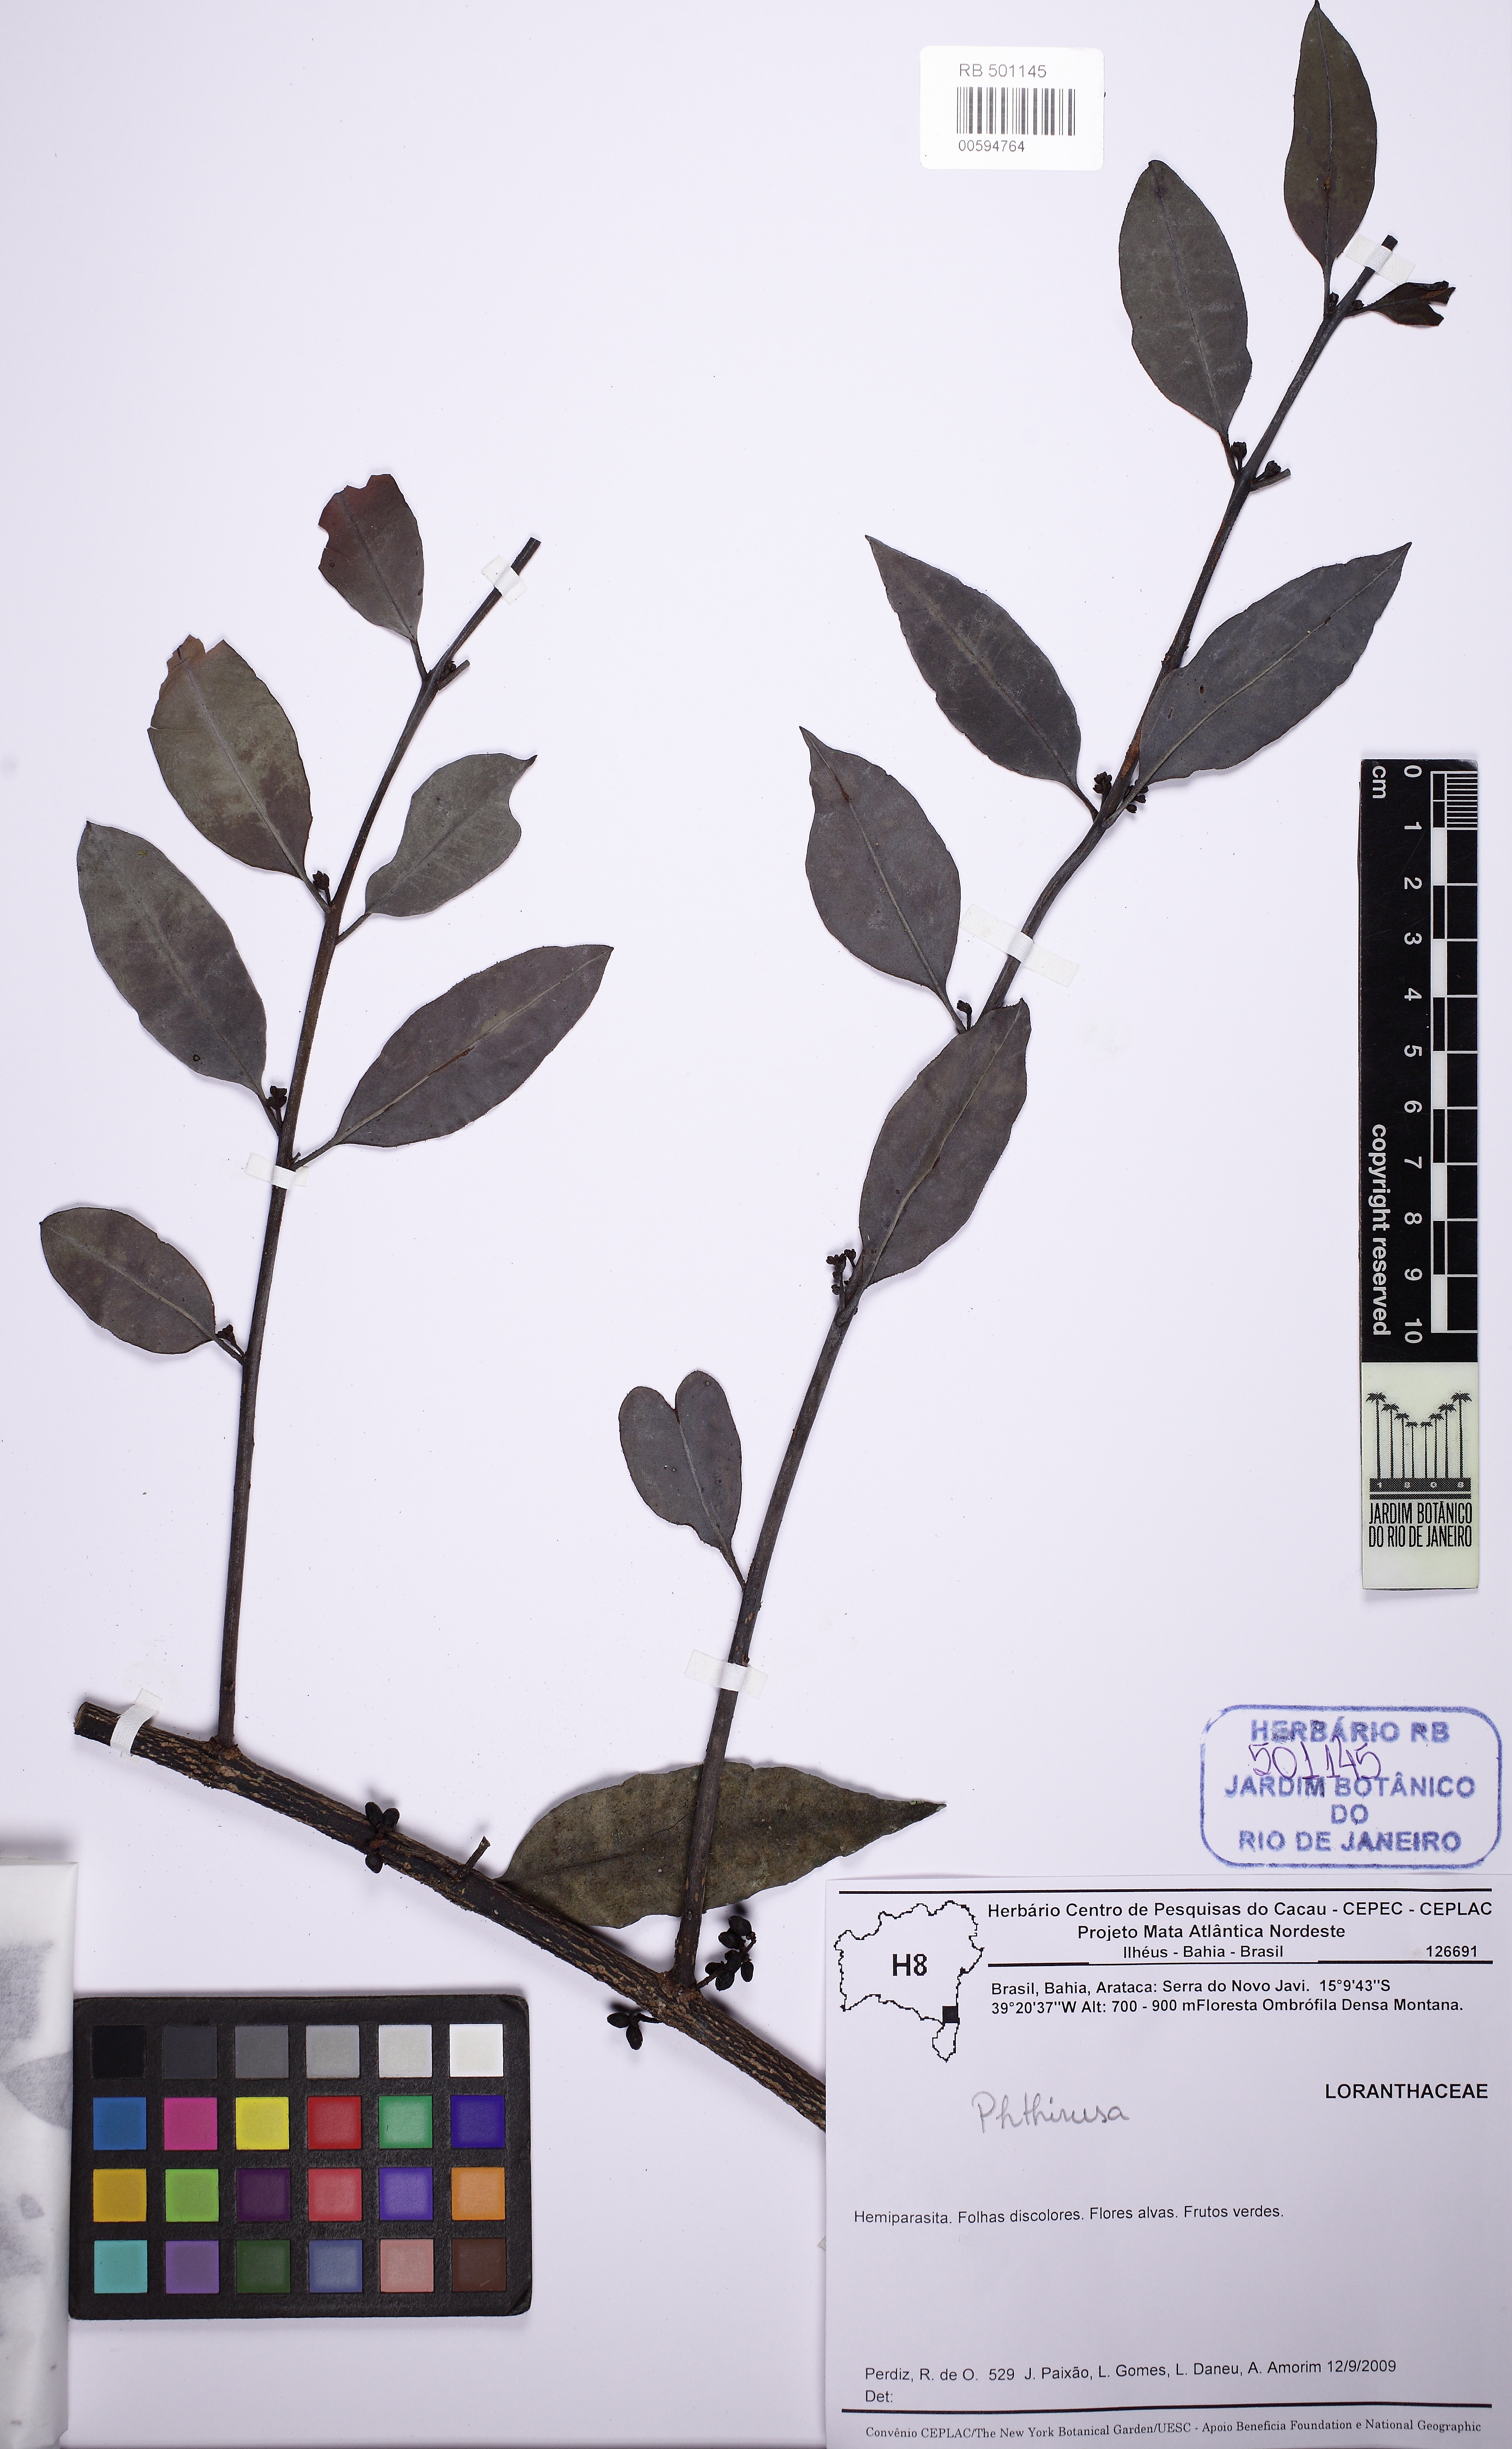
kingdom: Plantae
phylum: Tracheophyta
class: Magnoliopsida
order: Santalales
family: Loranthaceae
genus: Struthanthus
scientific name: Struthanthus salicifolius
